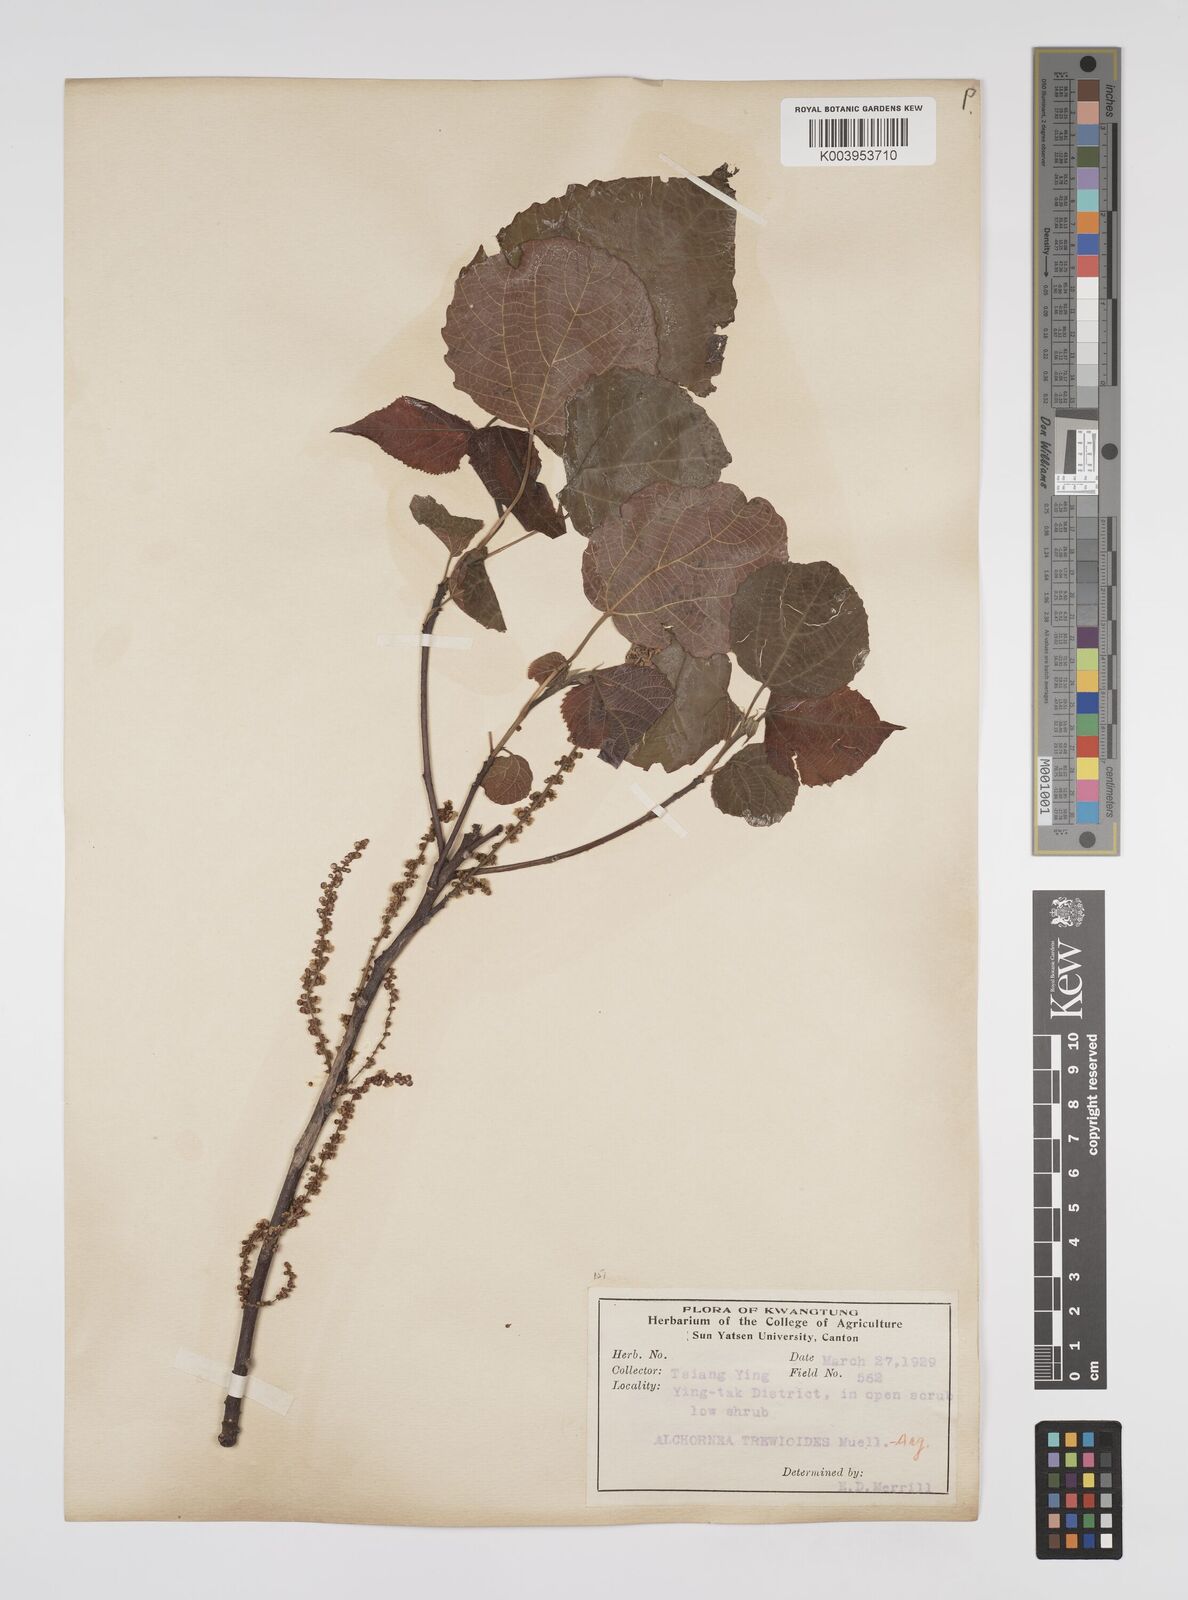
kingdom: Plantae
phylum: Tracheophyta
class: Magnoliopsida
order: Malpighiales
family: Euphorbiaceae
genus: Alchornea
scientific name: Alchornea trewioides
